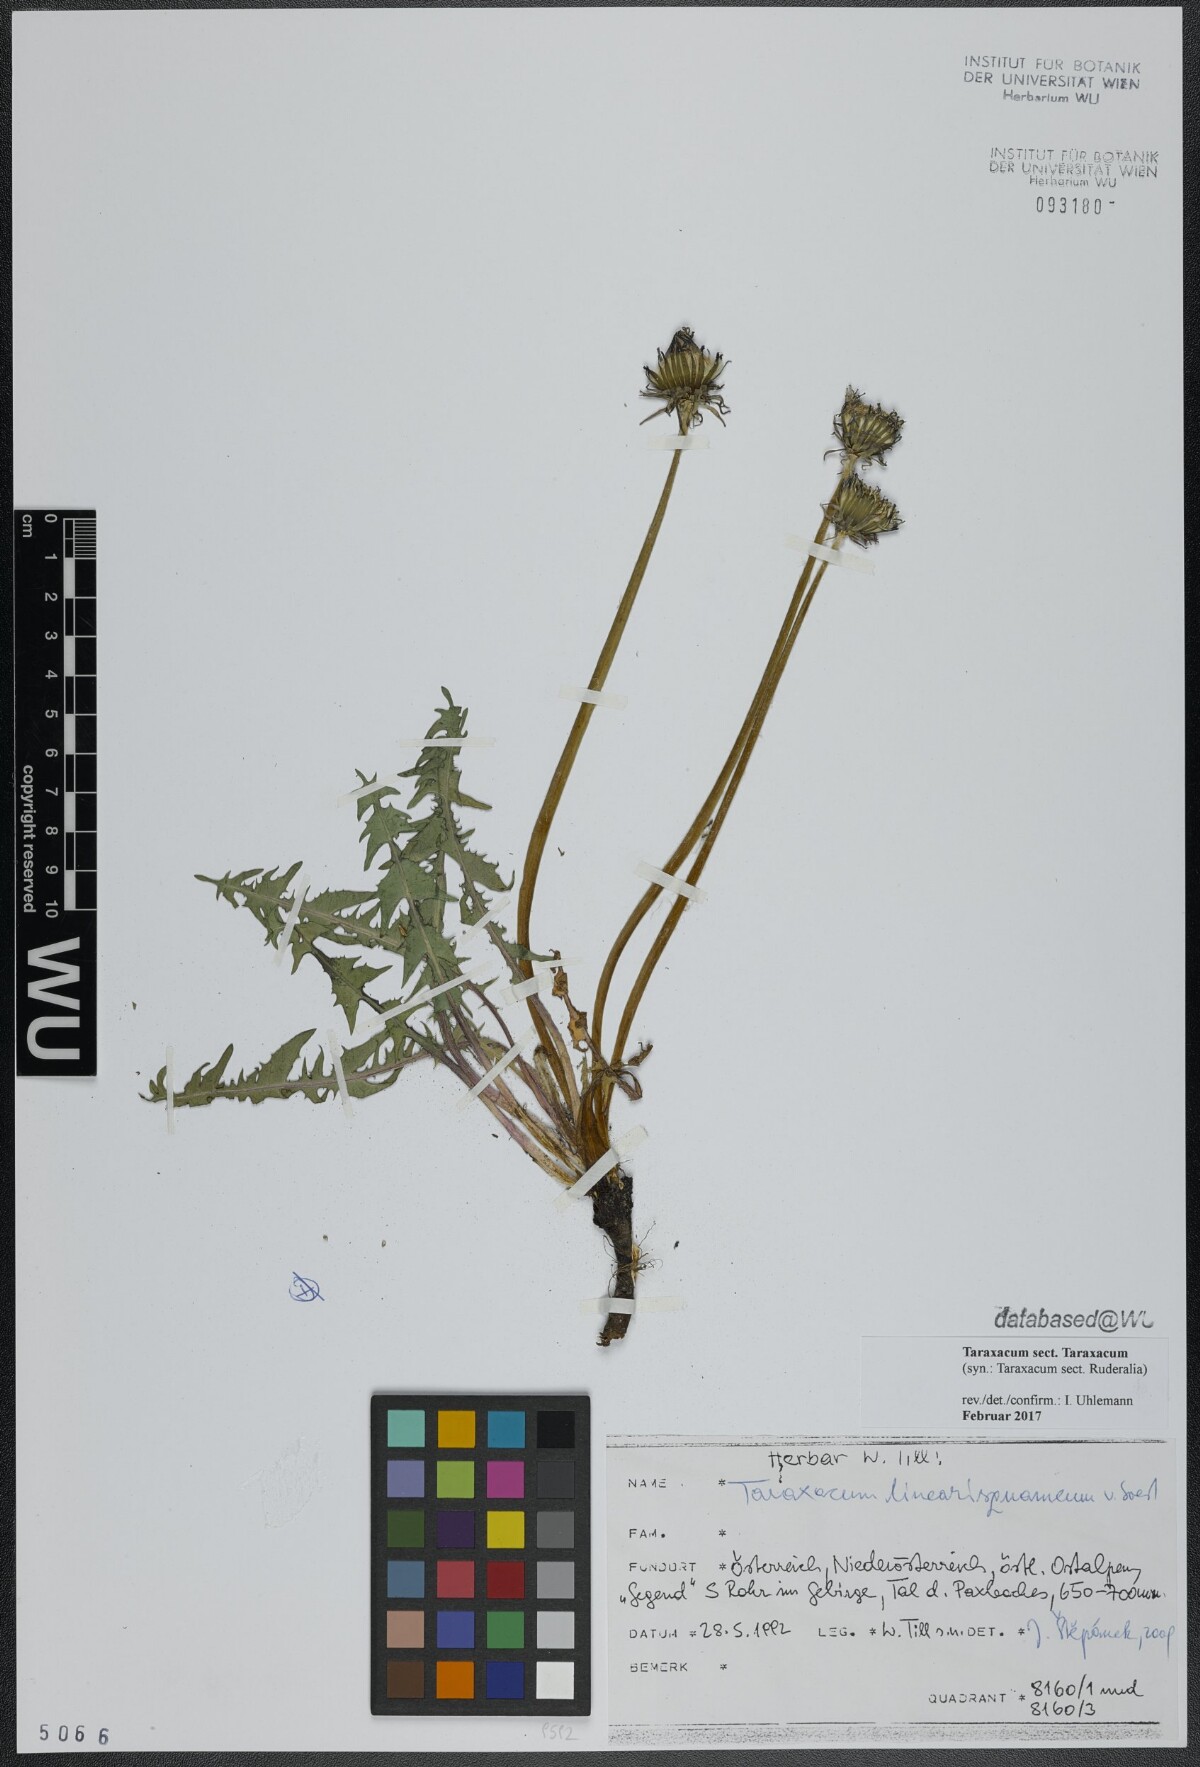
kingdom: Plantae
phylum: Tracheophyta
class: Magnoliopsida
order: Asterales
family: Asteraceae
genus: Taraxacum
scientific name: Taraxacum
